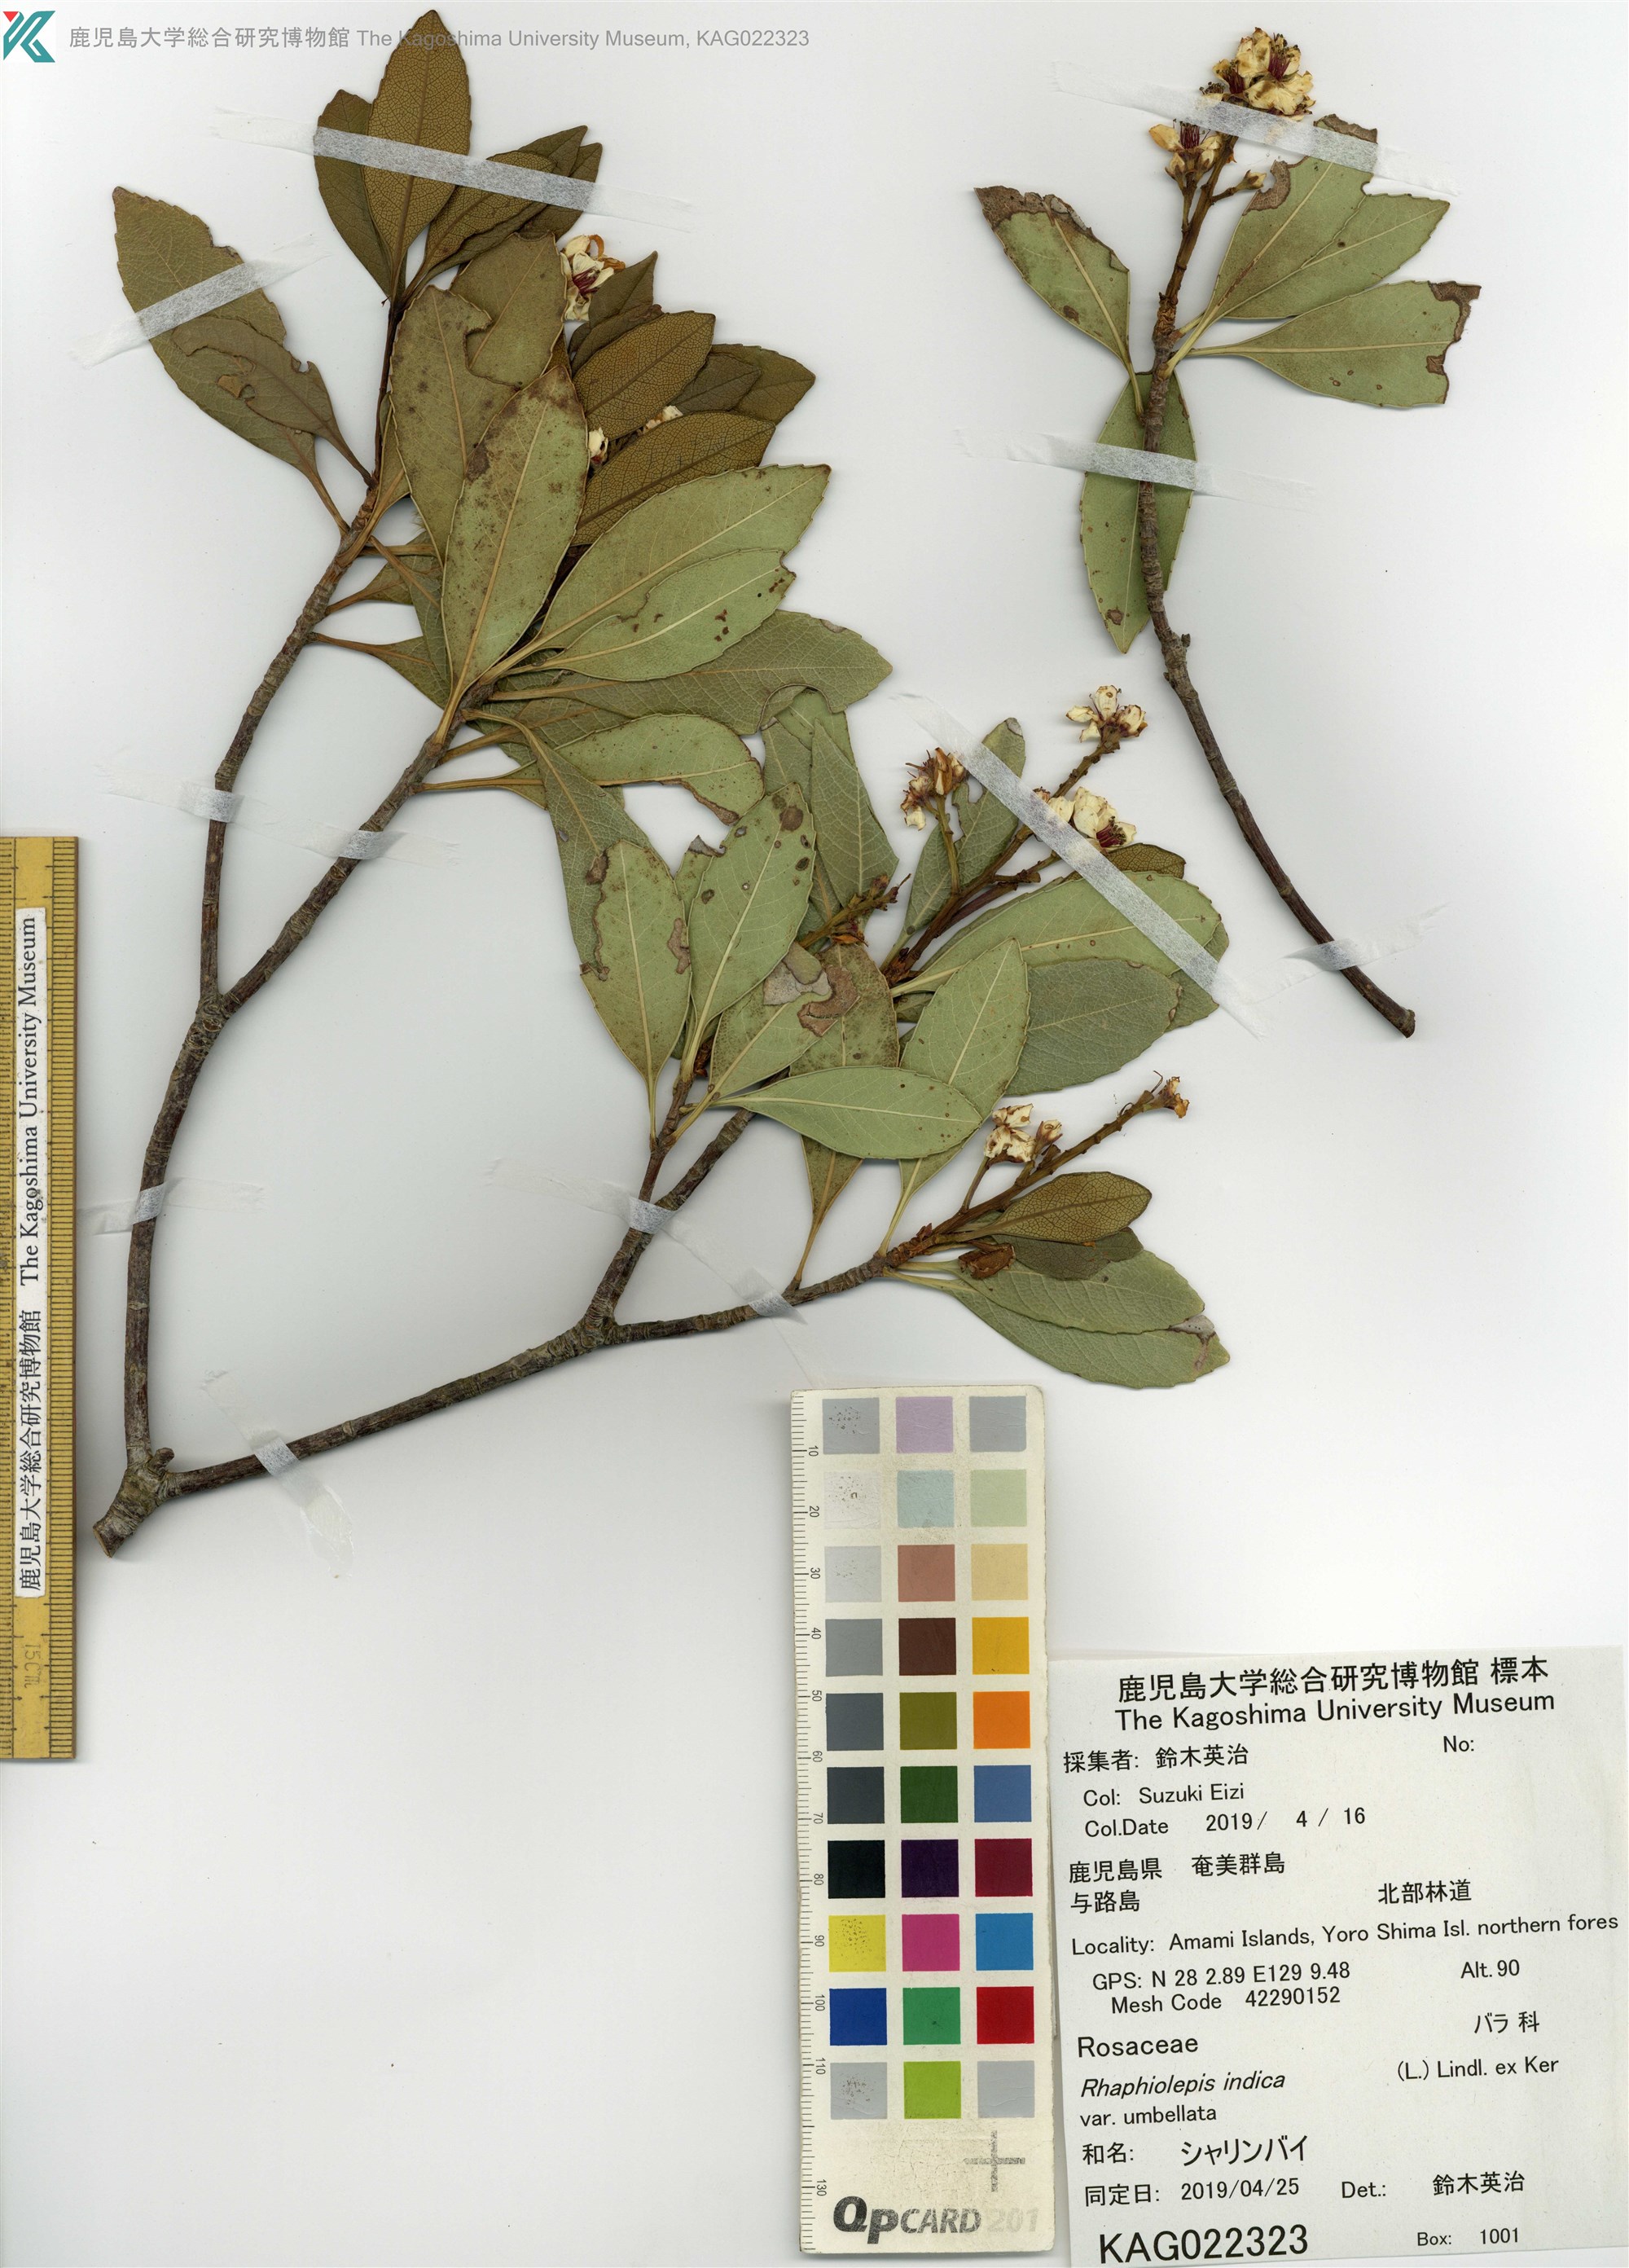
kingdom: Plantae
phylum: Tracheophyta
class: Magnoliopsida
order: Rosales
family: Rosaceae
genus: Rhaphiolepis
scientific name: Rhaphiolepis umbellata
